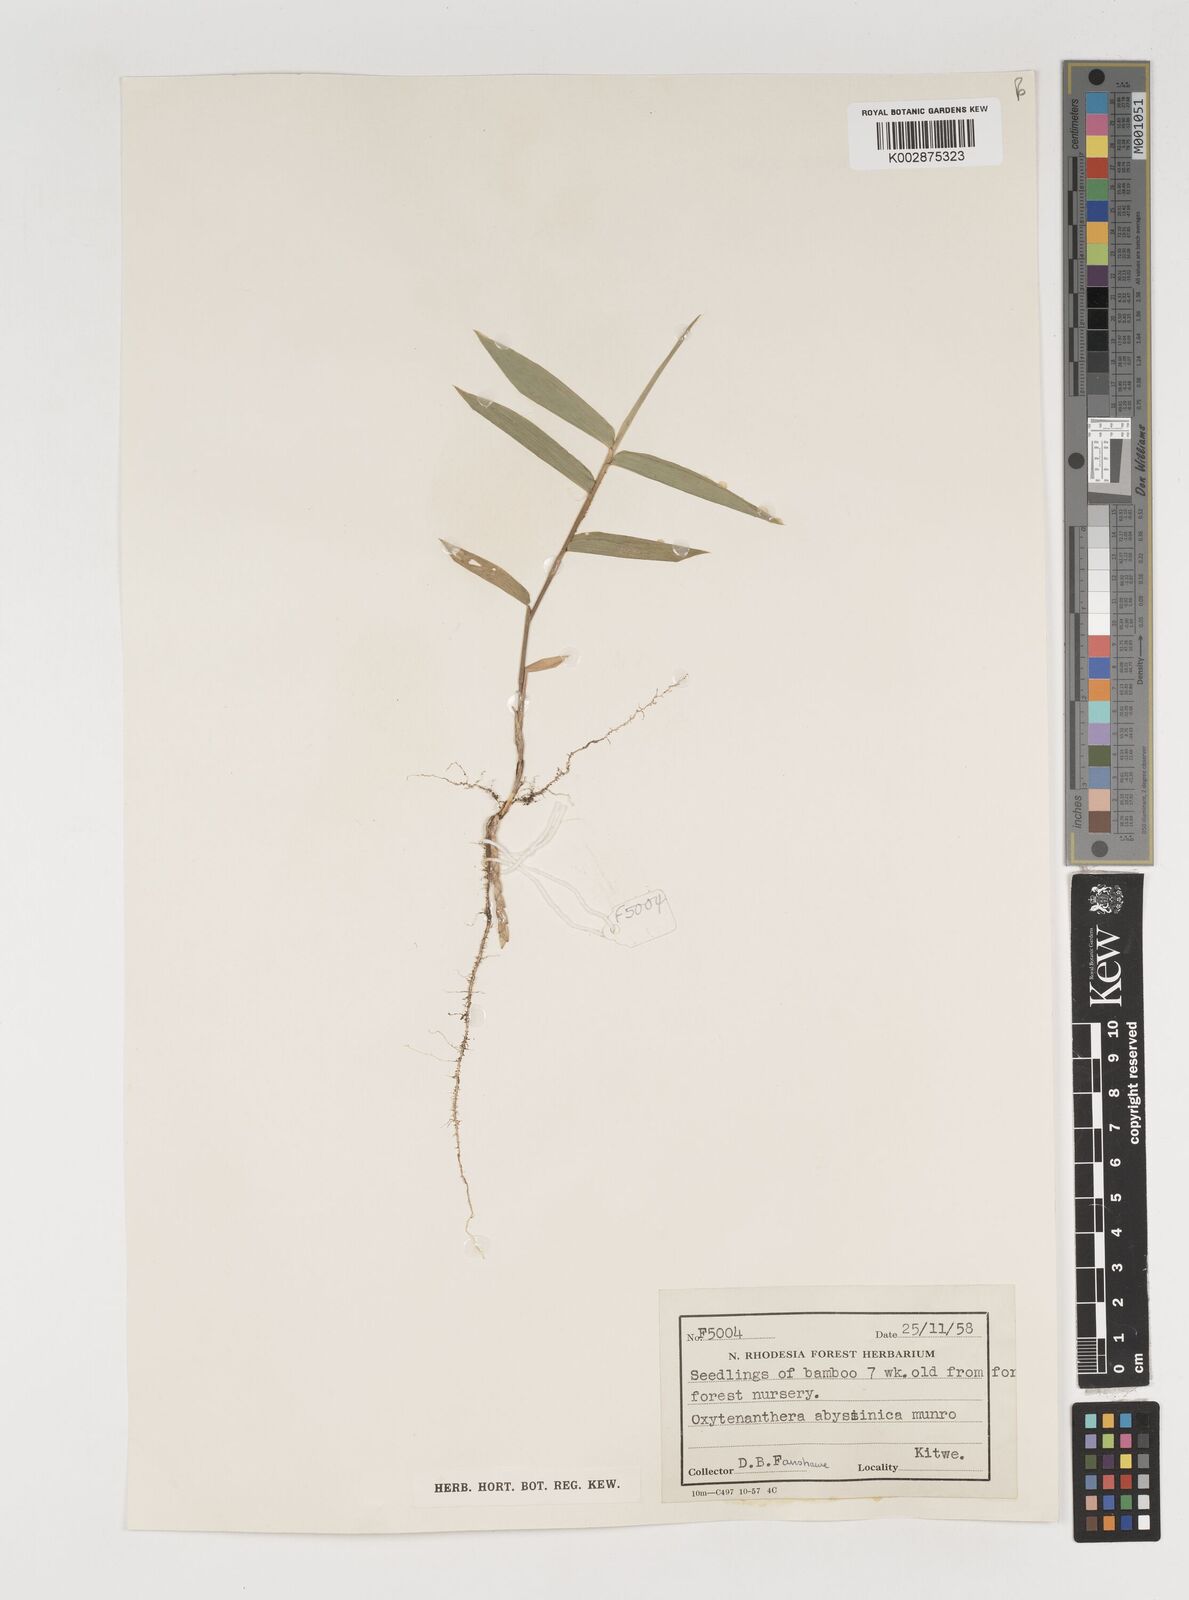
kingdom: Plantae
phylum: Tracheophyta
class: Liliopsida
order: Poales
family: Poaceae
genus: Oxytenanthera
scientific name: Oxytenanthera abyssinica
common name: Wine bamboo
